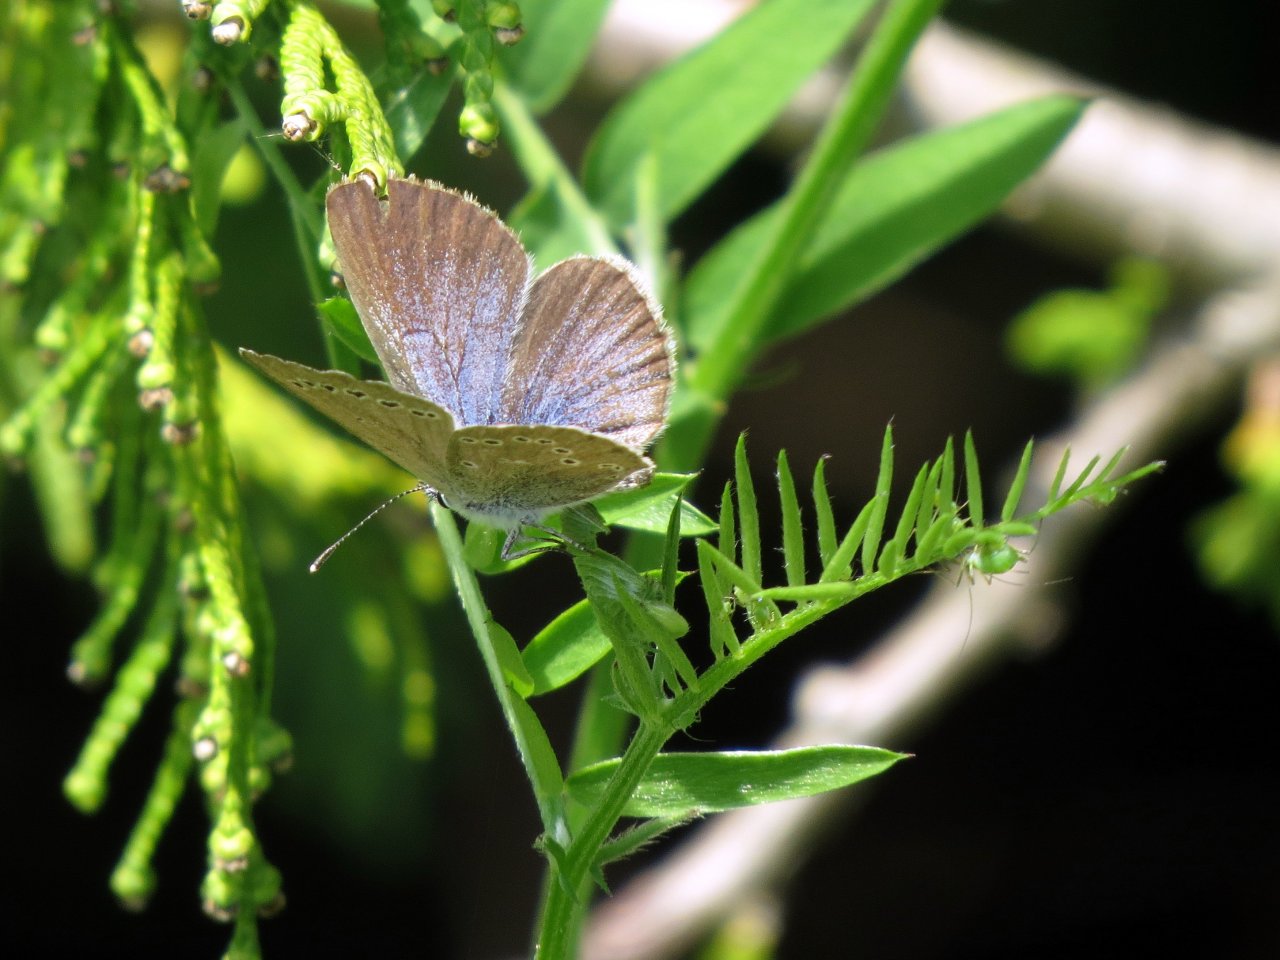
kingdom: Animalia
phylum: Arthropoda
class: Insecta
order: Lepidoptera
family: Lycaenidae
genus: Glaucopsyche
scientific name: Glaucopsyche lygdamus
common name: Silvery Blue
